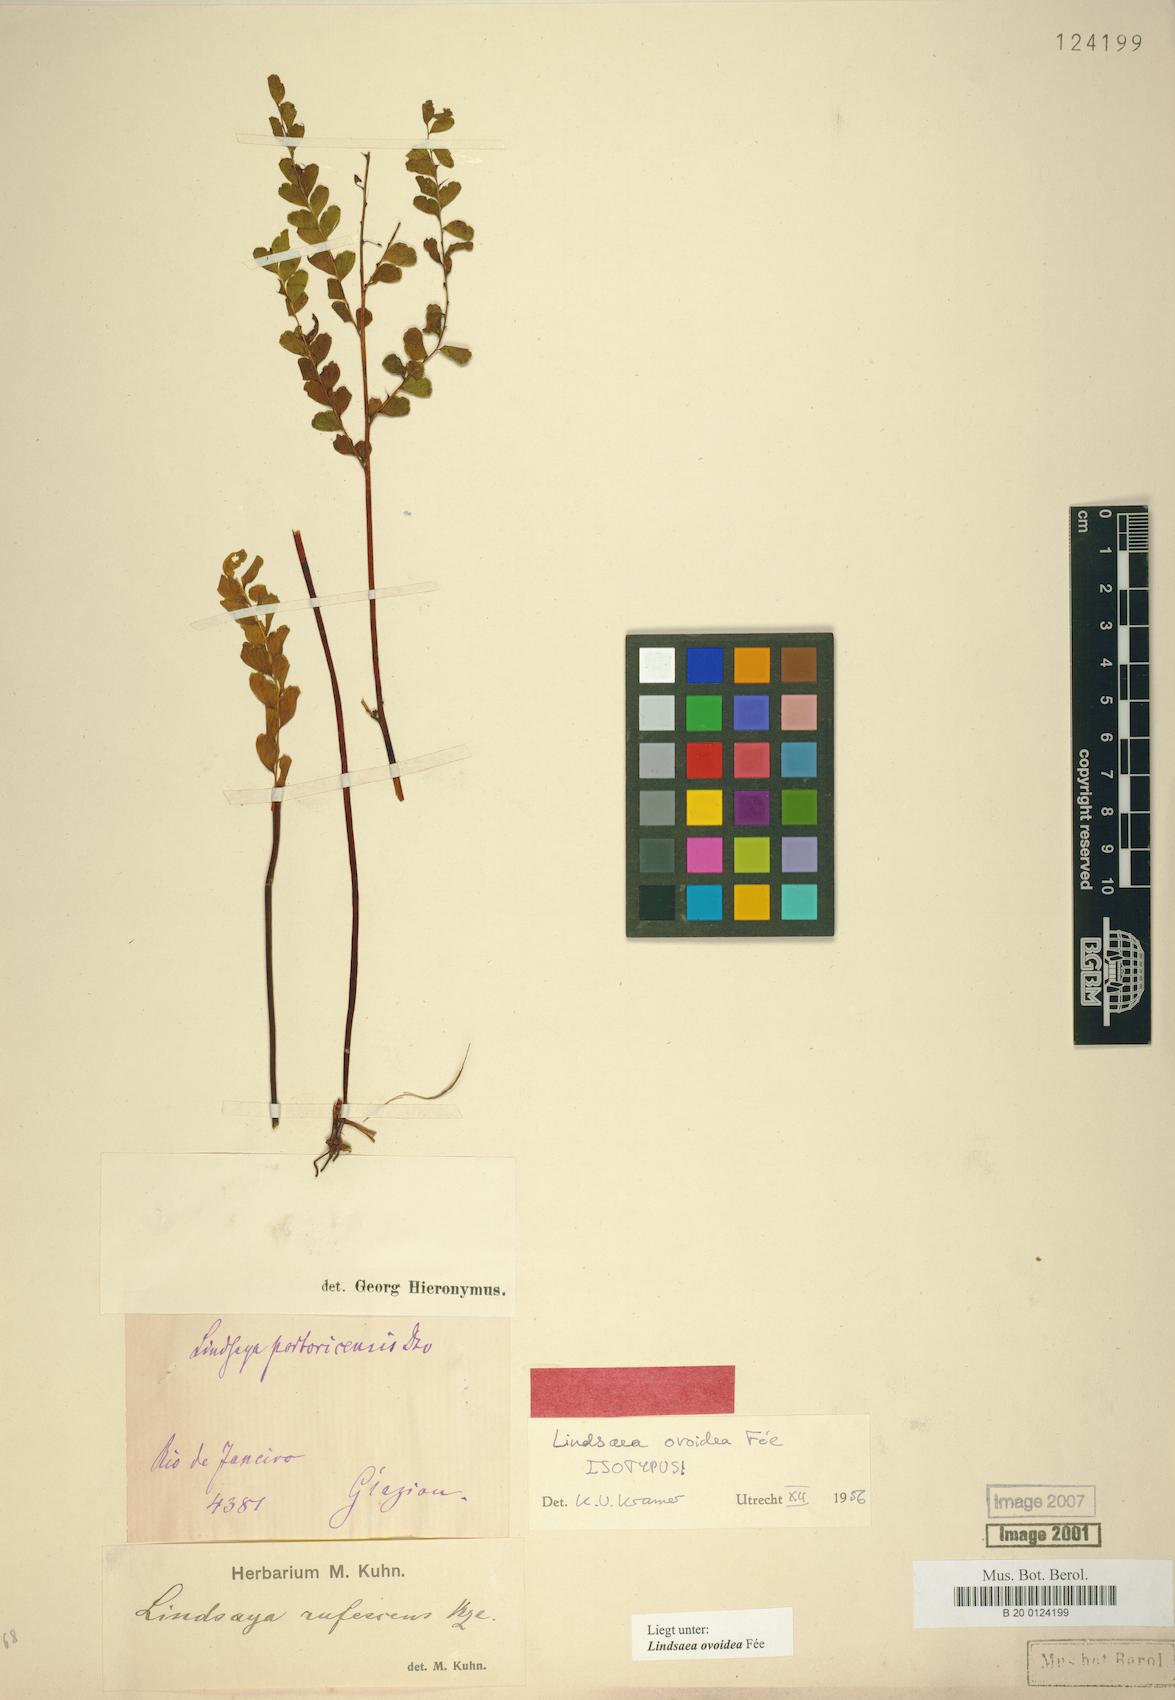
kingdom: Plantae
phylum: Tracheophyta
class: Polypodiopsida
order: Polypodiales
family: Lindsaeaceae
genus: Lindsaea
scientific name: Lindsaea ovoidea
